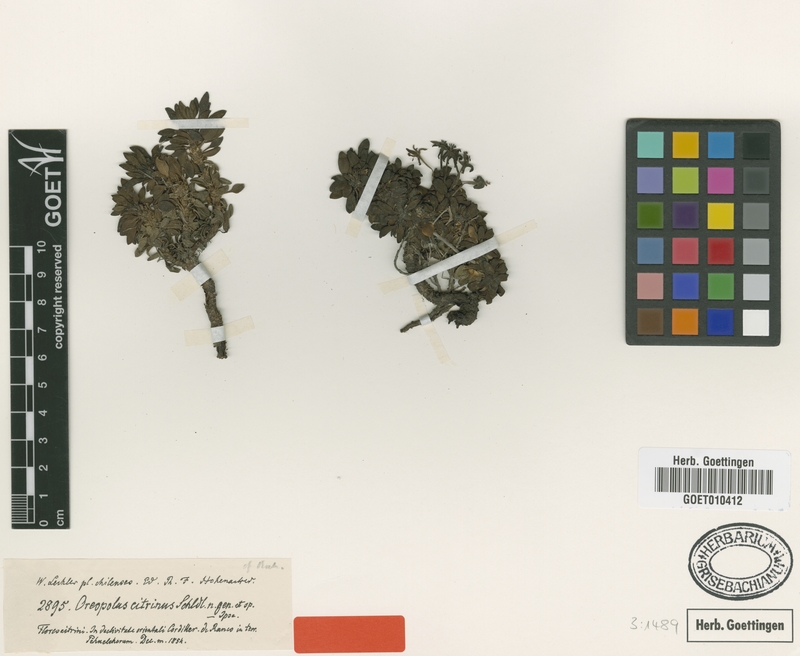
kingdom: Plantae
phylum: Tracheophyta
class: Magnoliopsida
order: Gentianales
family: Rubiaceae
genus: Oreopolus
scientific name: Oreopolus glacialis
